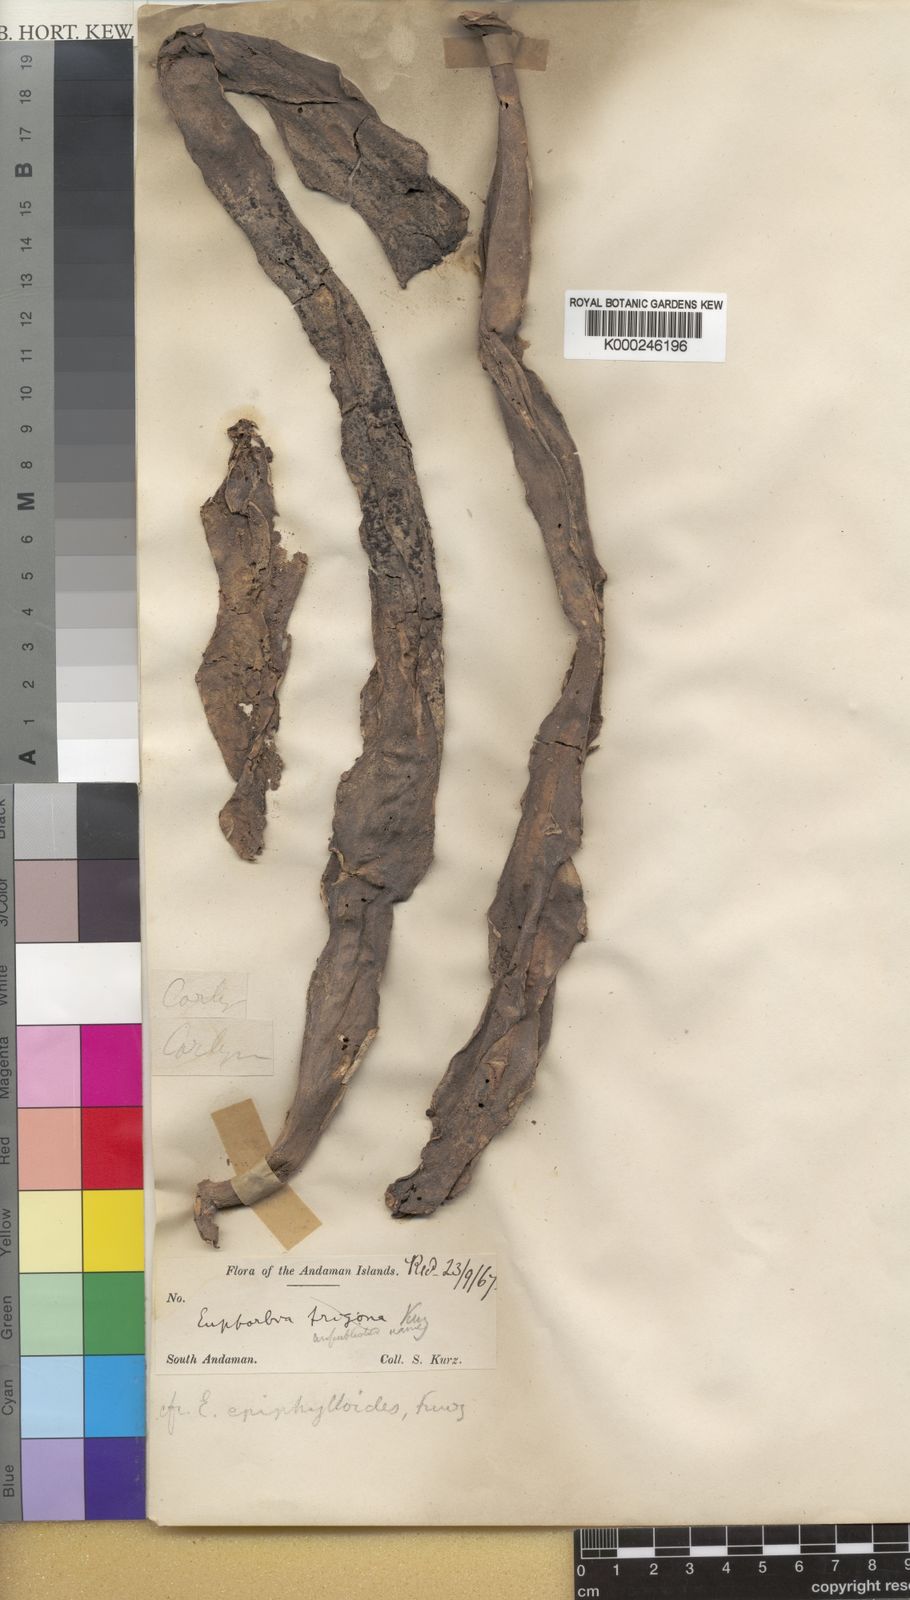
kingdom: Plantae
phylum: Tracheophyta
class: Magnoliopsida
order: Malpighiales
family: Euphorbiaceae
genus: Euphorbia
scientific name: Euphorbia epiphylloides
